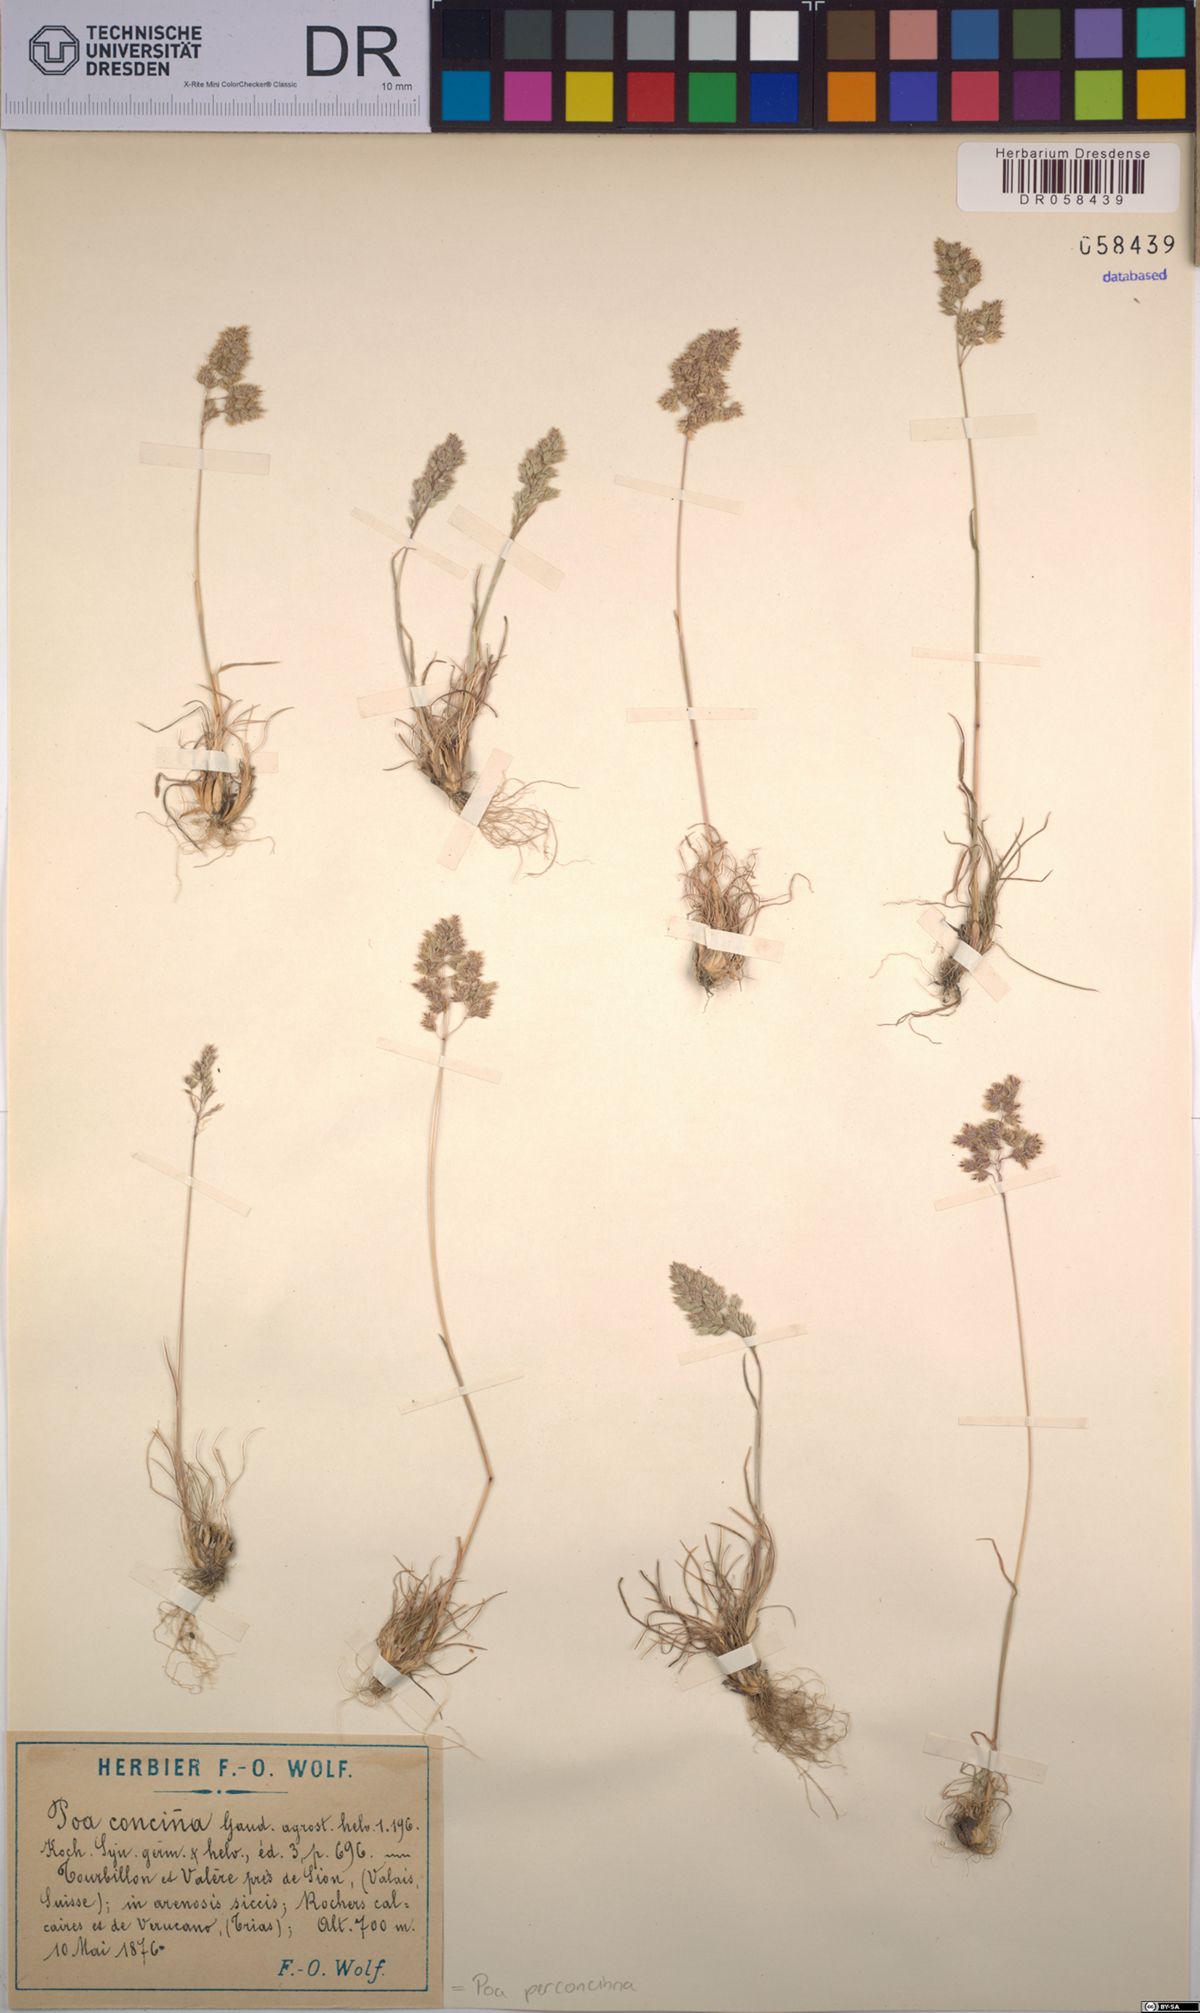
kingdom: Plantae
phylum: Tracheophyta
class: Liliopsida
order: Poales
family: Poaceae
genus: Poa
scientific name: Poa perconcinna
